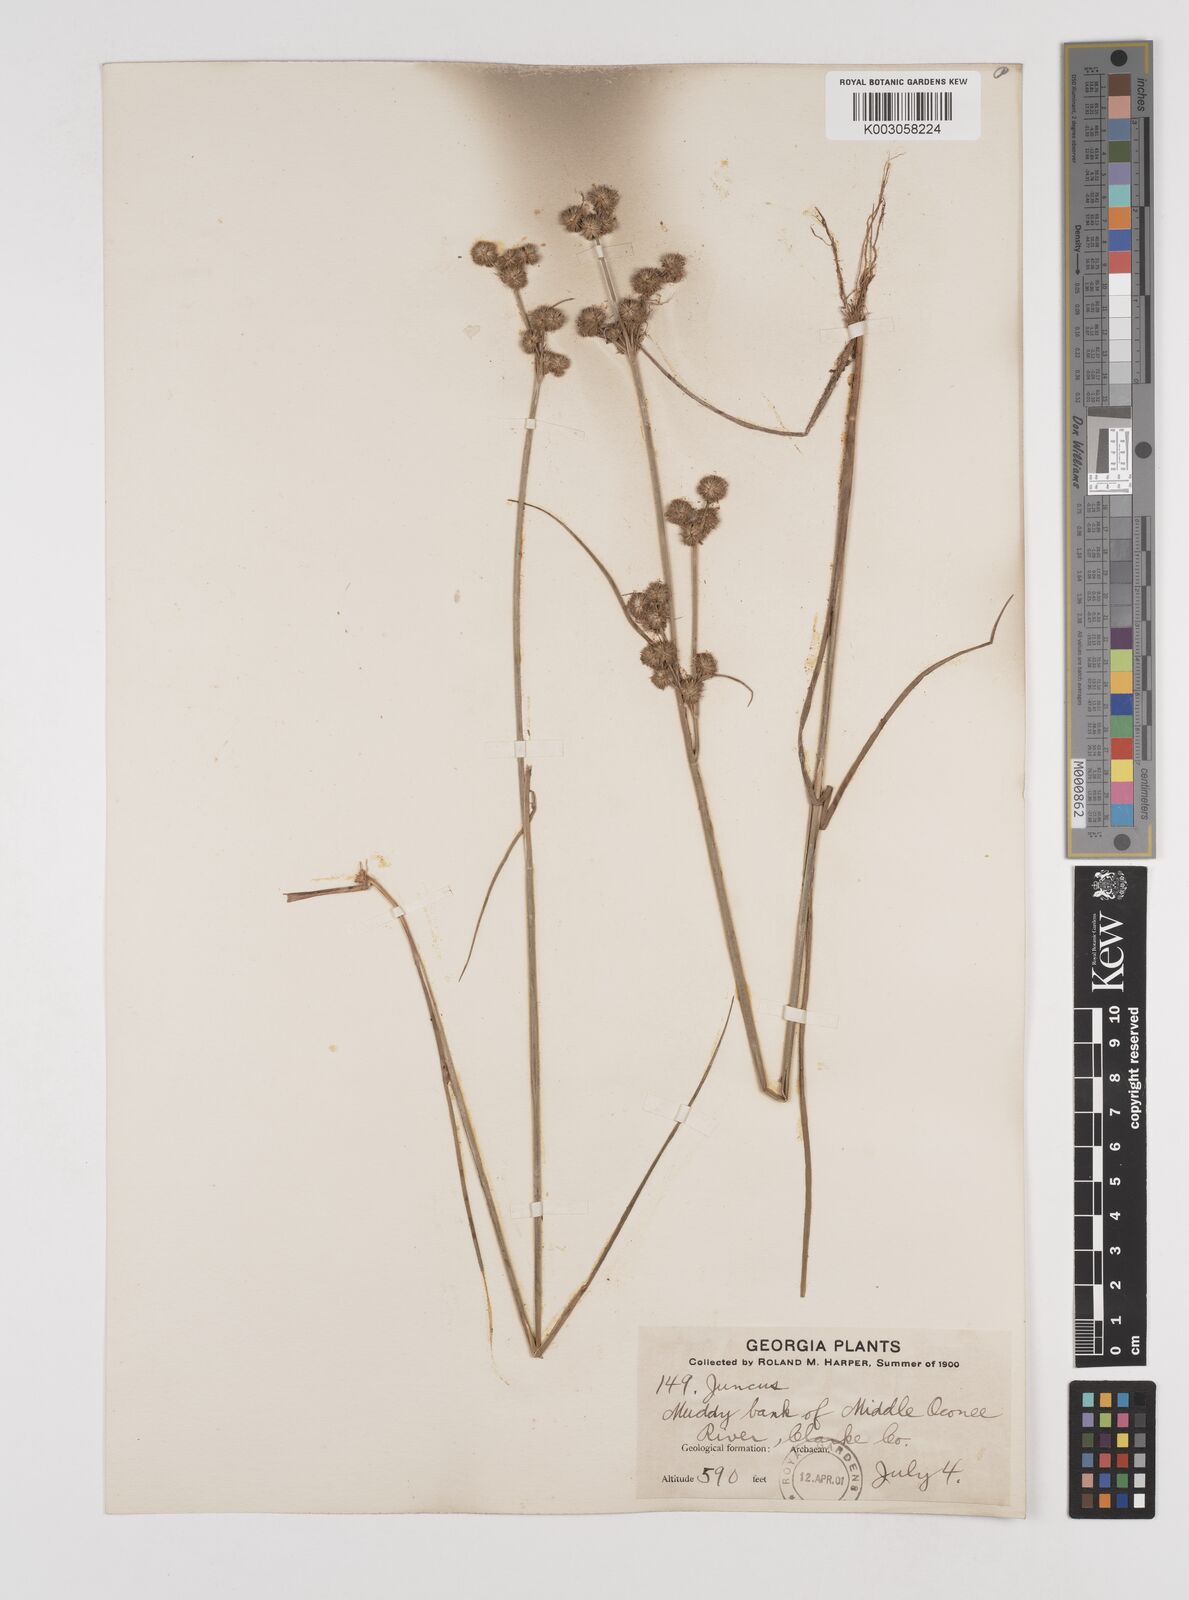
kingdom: Plantae
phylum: Tracheophyta
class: Liliopsida
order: Poales
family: Juncaceae
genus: Juncus
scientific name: Juncus
